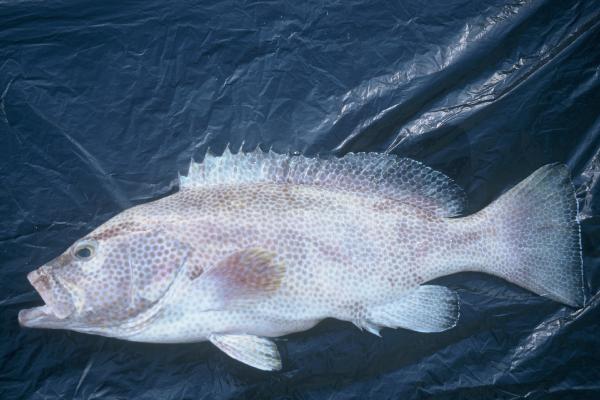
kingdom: Animalia
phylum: Chordata
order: Perciformes
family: Serranidae
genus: Epinephelus
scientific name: Epinephelus miliaris
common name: Netfin grouper
